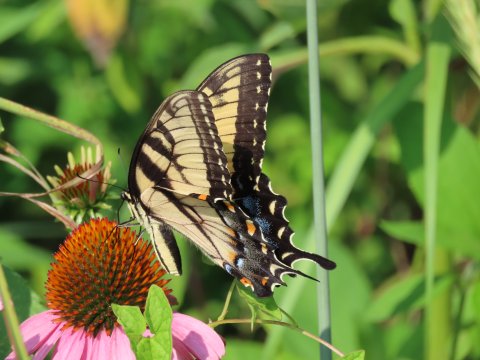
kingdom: Animalia
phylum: Arthropoda
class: Insecta
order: Lepidoptera
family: Papilionidae
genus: Pterourus
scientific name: Pterourus glaucus
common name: Eastern Tiger Swallowtail
